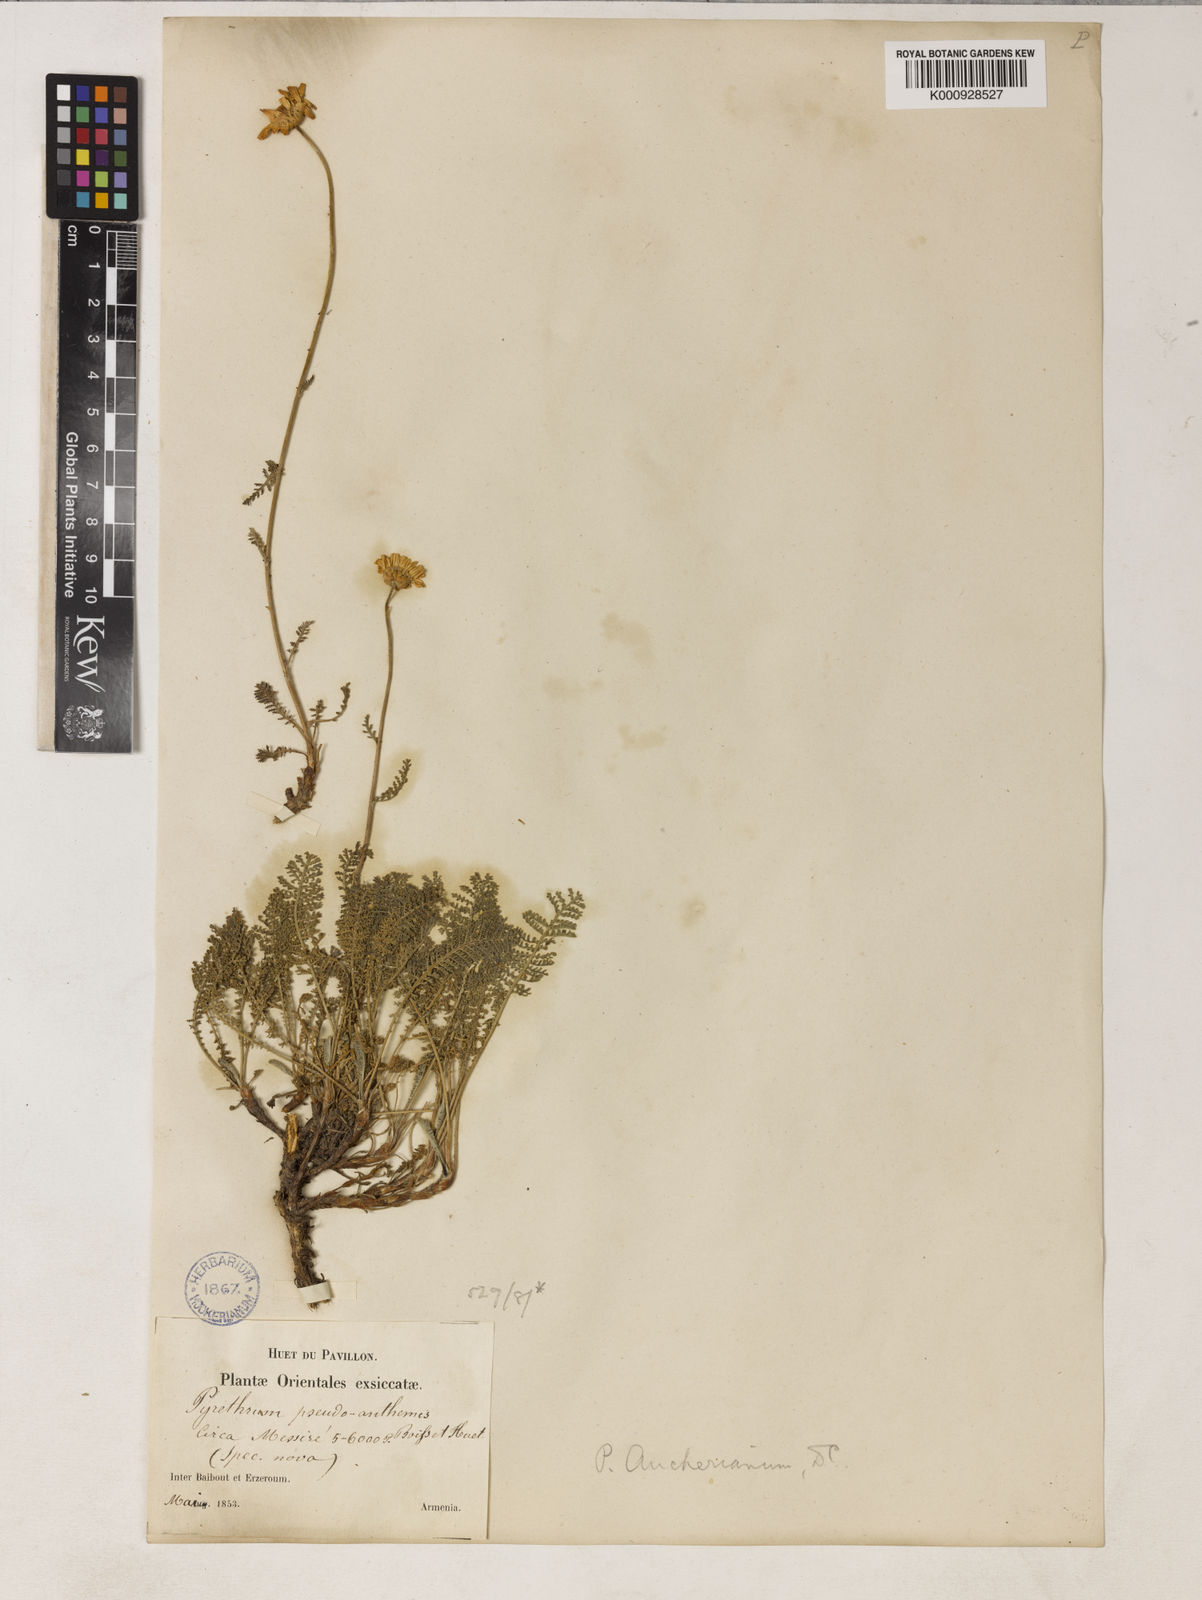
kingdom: Plantae
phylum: Tracheophyta
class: Magnoliopsida
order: Asterales
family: Asteraceae
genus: Tanacetum
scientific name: Tanacetum mucroniferum
